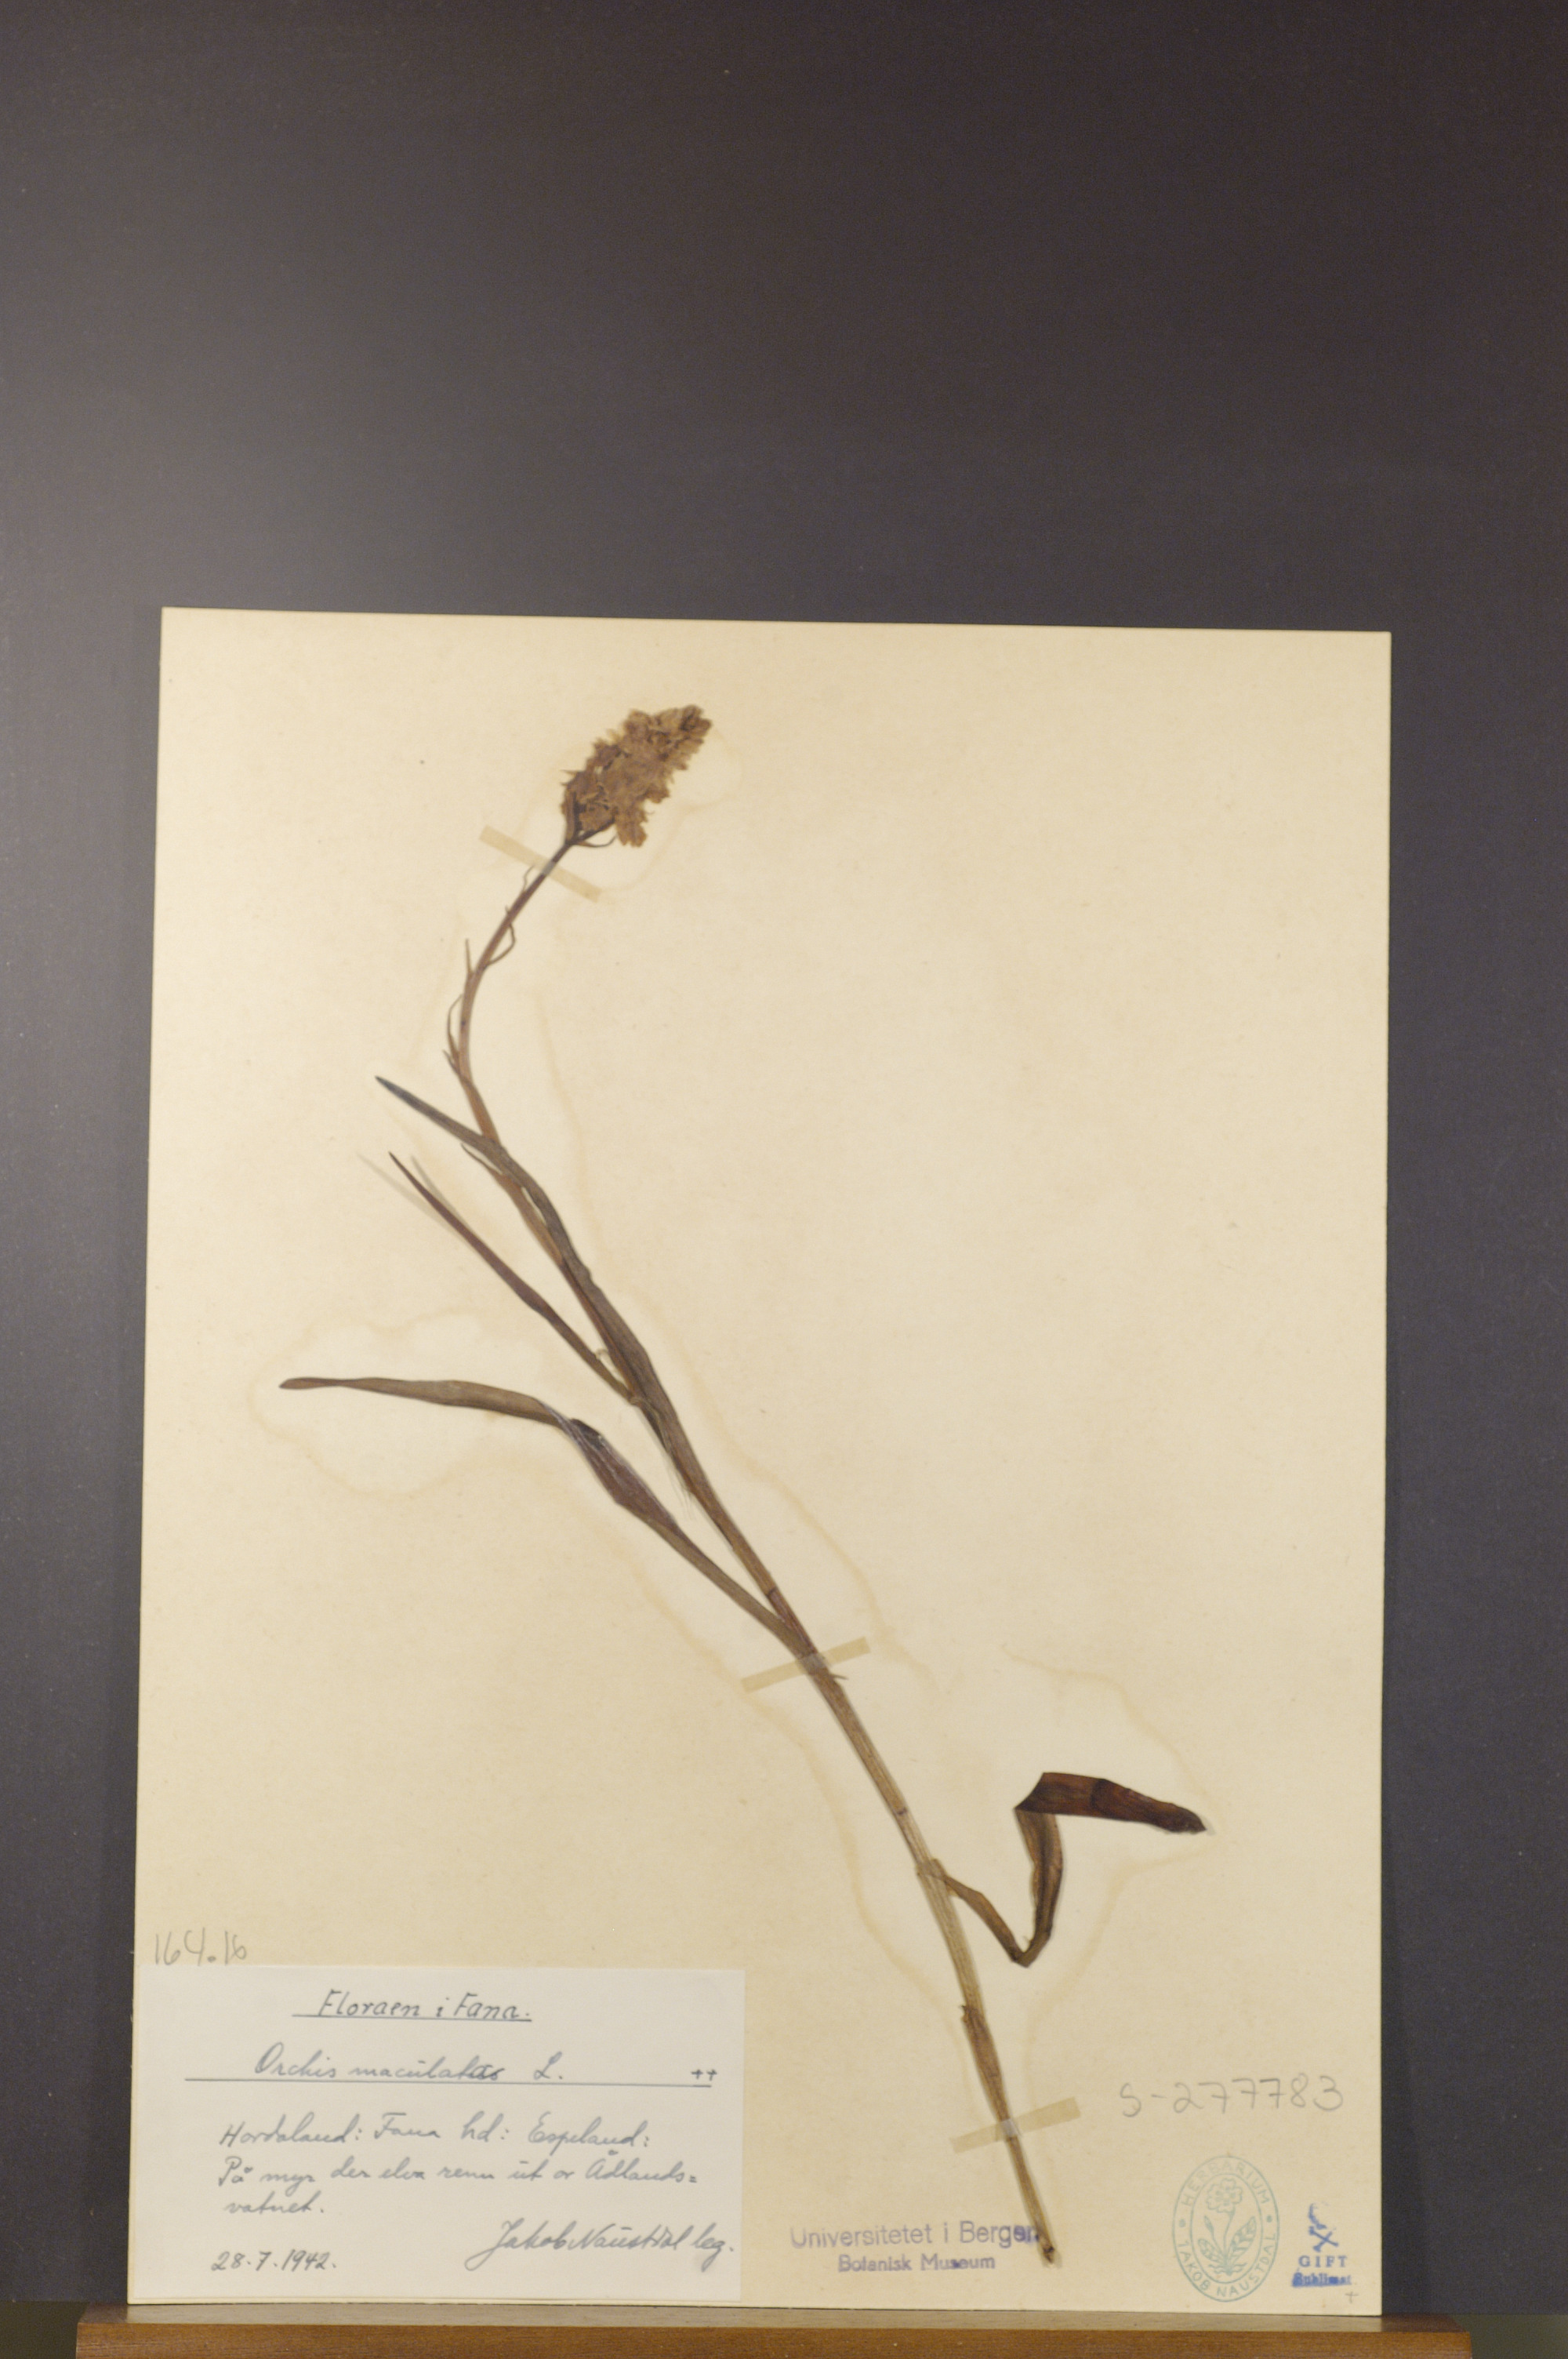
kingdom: Plantae
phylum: Tracheophyta
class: Liliopsida
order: Asparagales
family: Orchidaceae
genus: Dactylorhiza
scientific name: Dactylorhiza maculata
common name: Heath spotted-orchid
